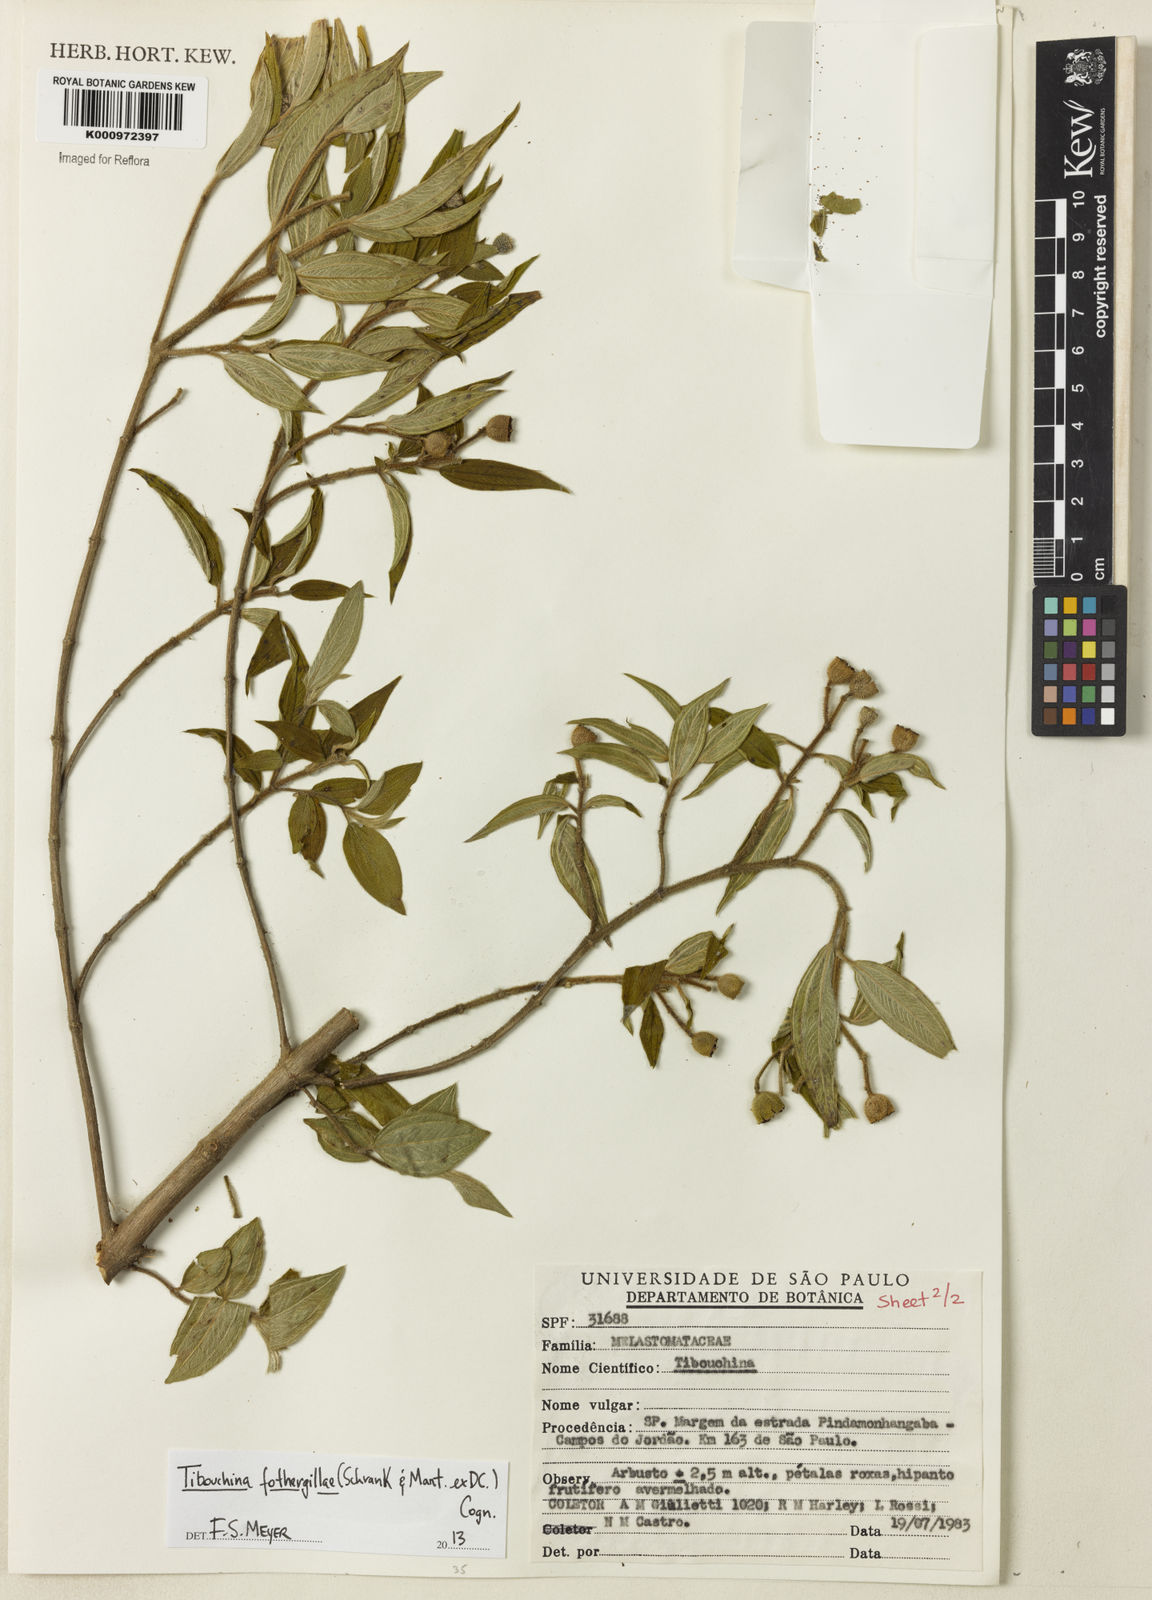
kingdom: Plantae
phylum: Tracheophyta
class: Magnoliopsida
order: Myrtales
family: Melastomataceae
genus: Pleroma
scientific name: Pleroma fothergillae
